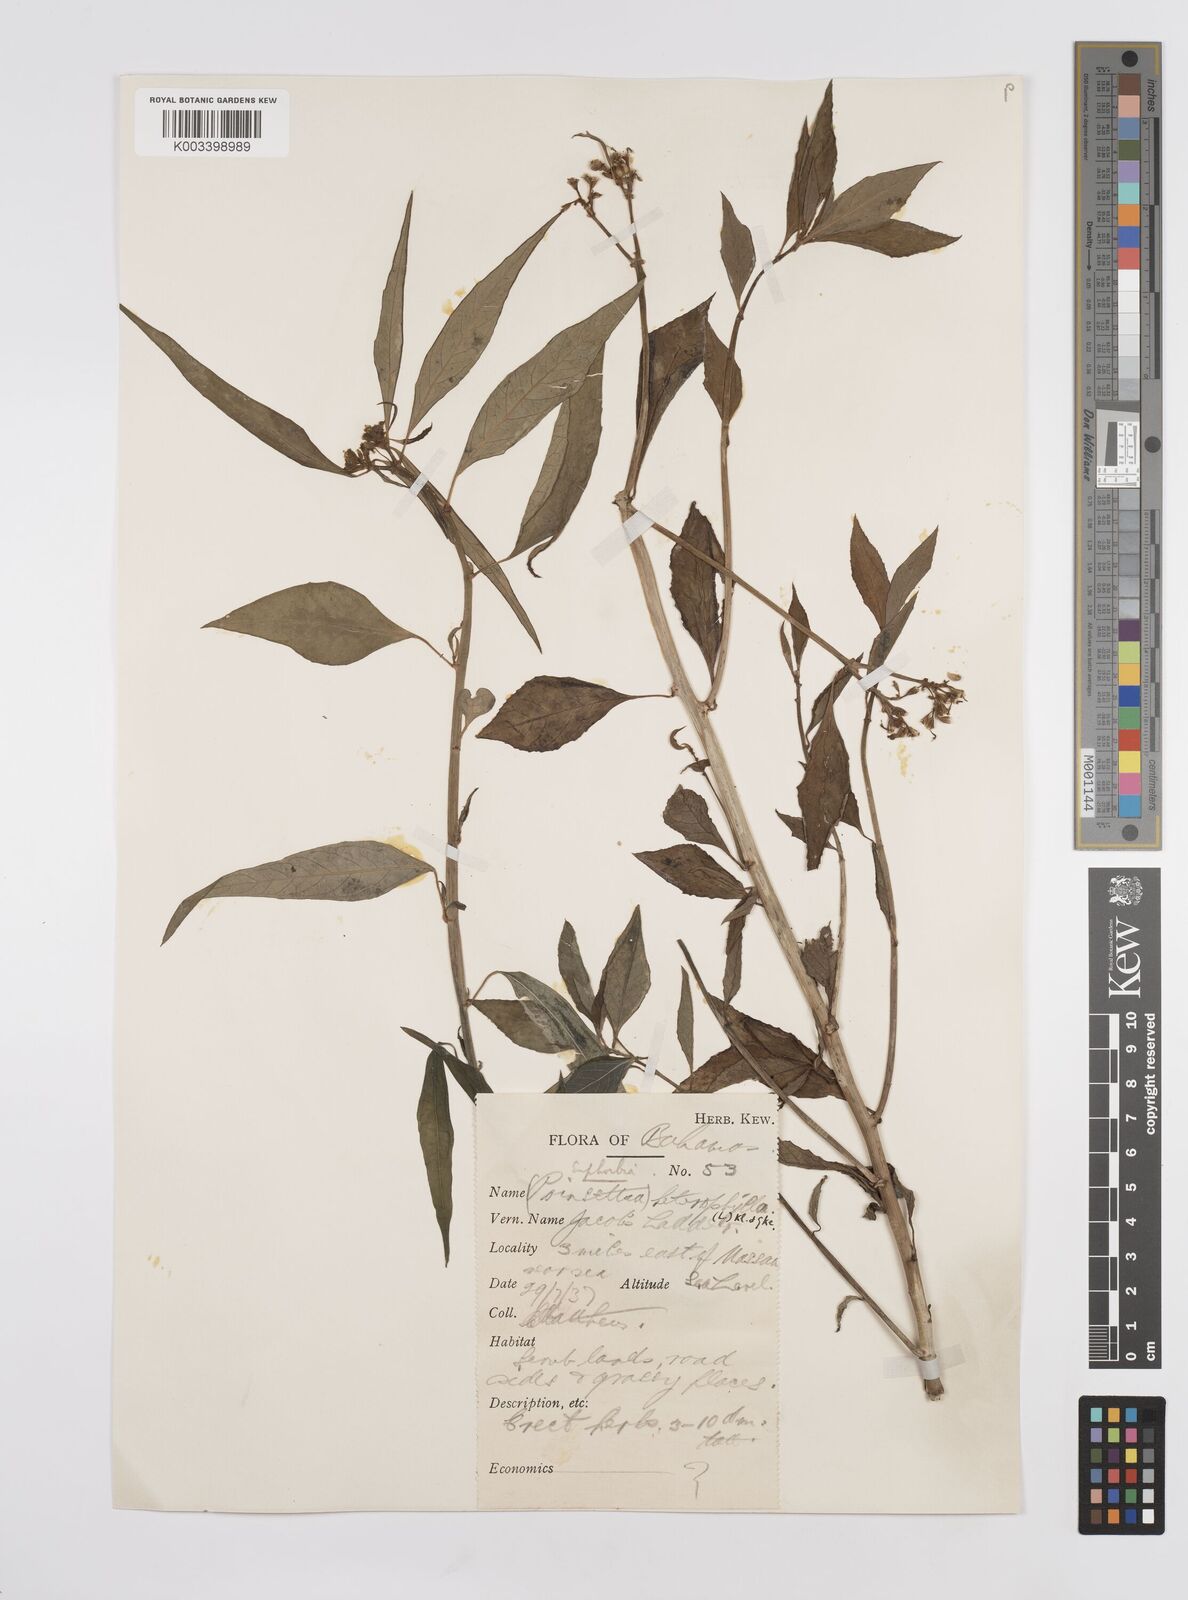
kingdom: Plantae
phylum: Tracheophyta
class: Magnoliopsida
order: Malpighiales
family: Euphorbiaceae
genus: Euphorbia
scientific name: Euphorbia heterophylla
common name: Mexican fireplant
